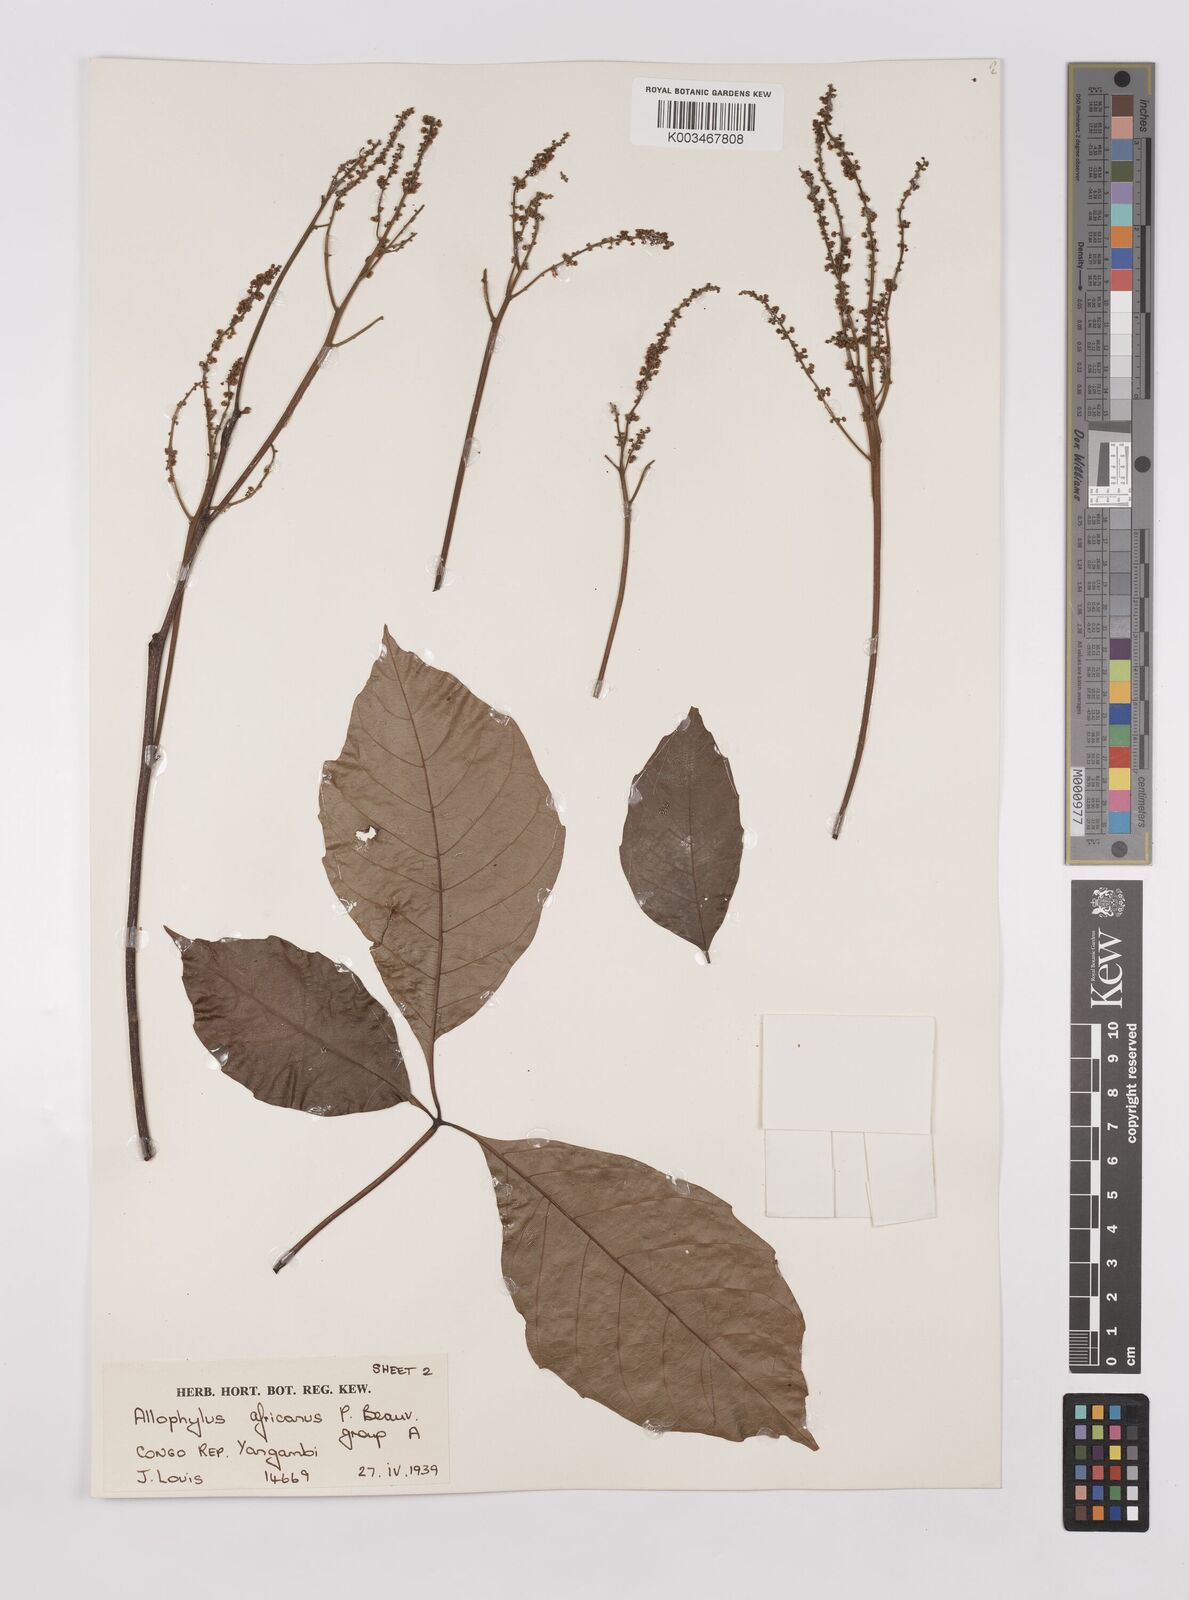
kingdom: Plantae
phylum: Tracheophyta
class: Magnoliopsida
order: Sapindales
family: Sapindaceae
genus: Allophylus
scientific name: Allophylus africanus
